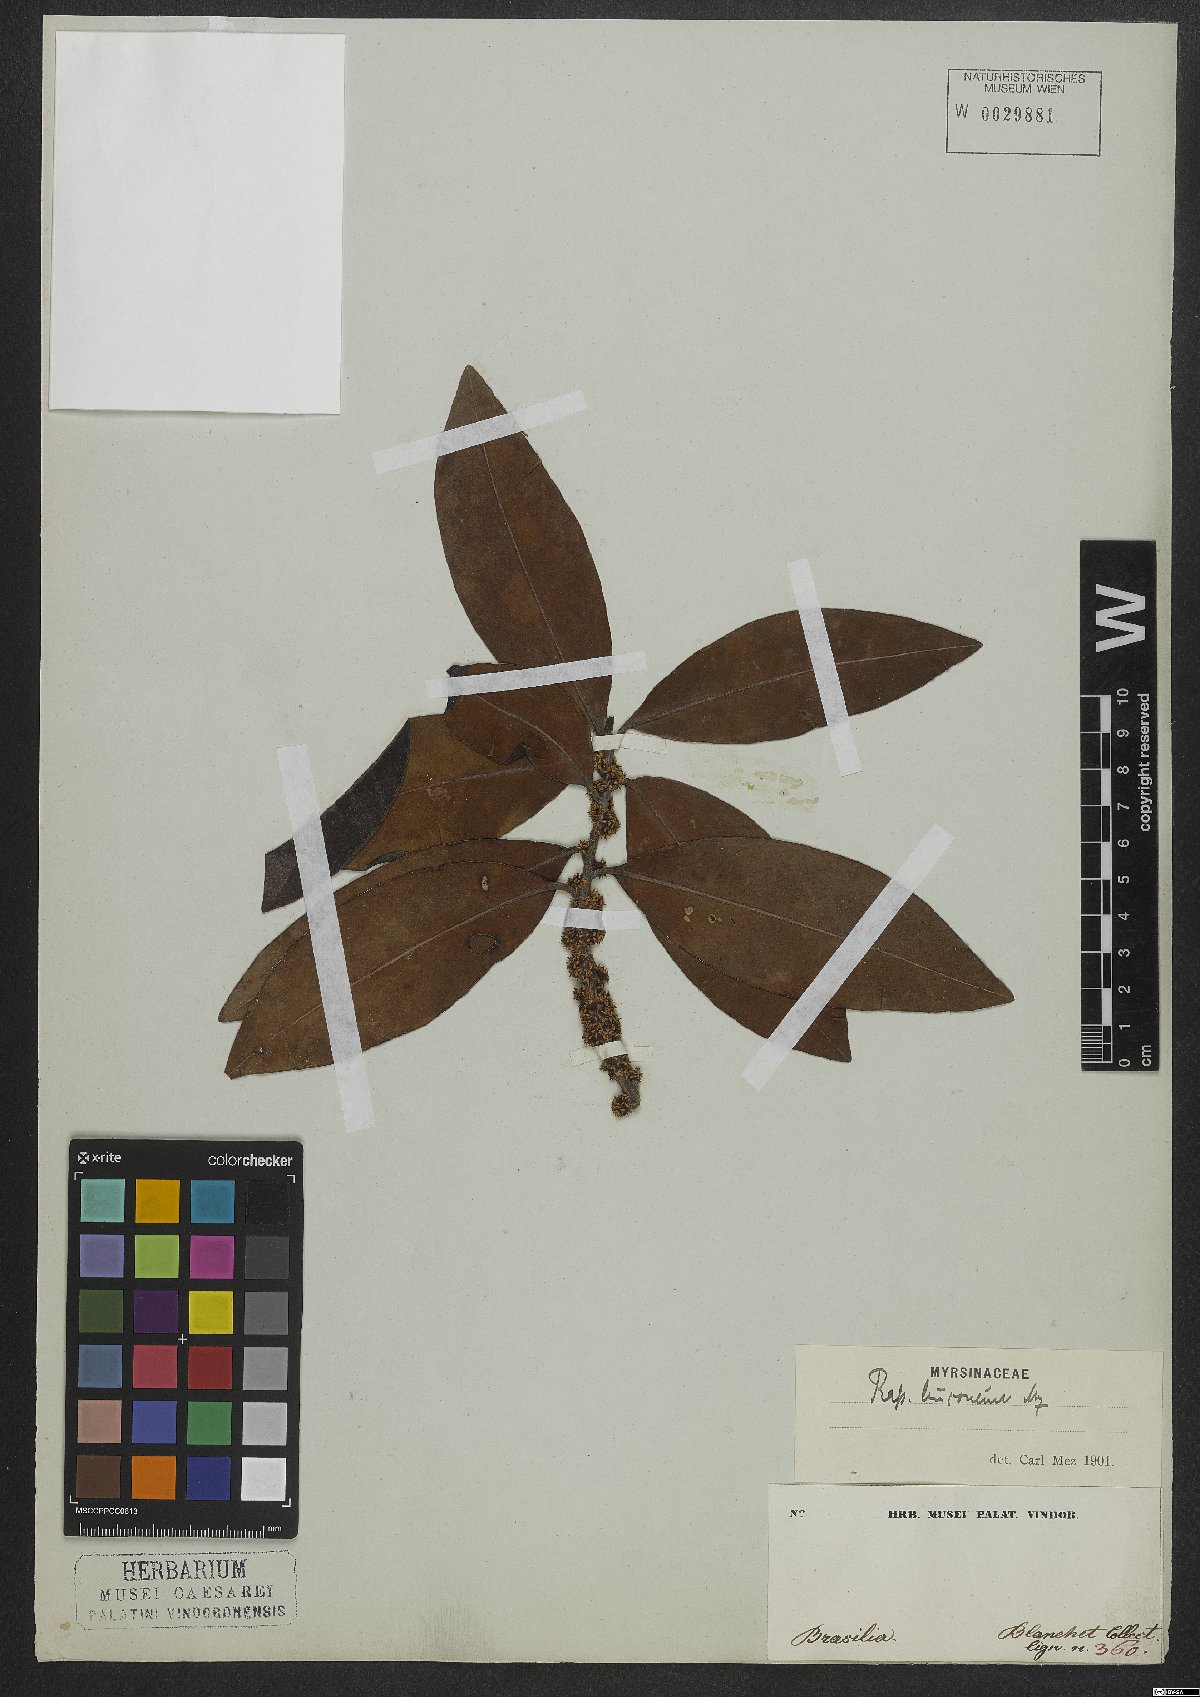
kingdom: Plantae
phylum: Tracheophyta
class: Magnoliopsida
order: Ericales
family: Primulaceae
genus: Myrsine
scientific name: Myrsine leuconeura
